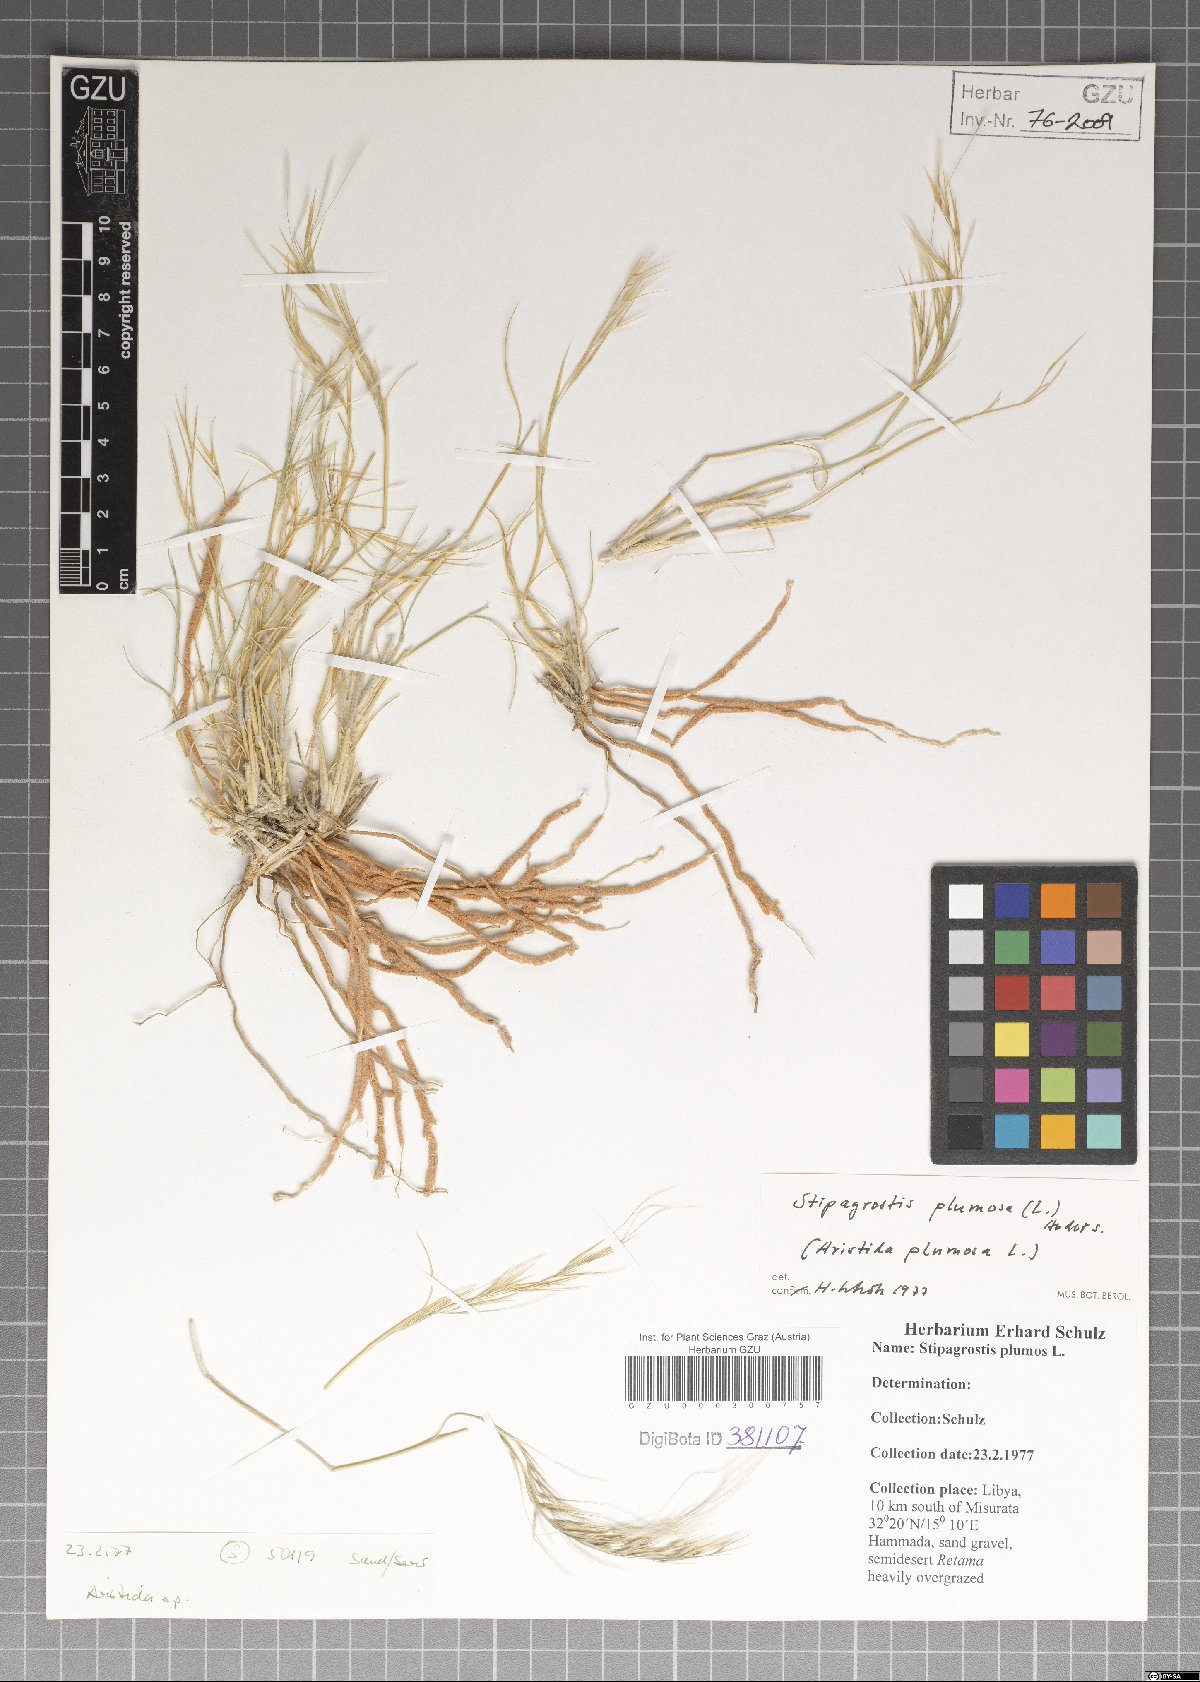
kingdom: Plantae
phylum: Tracheophyta
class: Liliopsida
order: Poales
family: Poaceae
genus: Stipagrostis
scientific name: Stipagrostis plumosa
